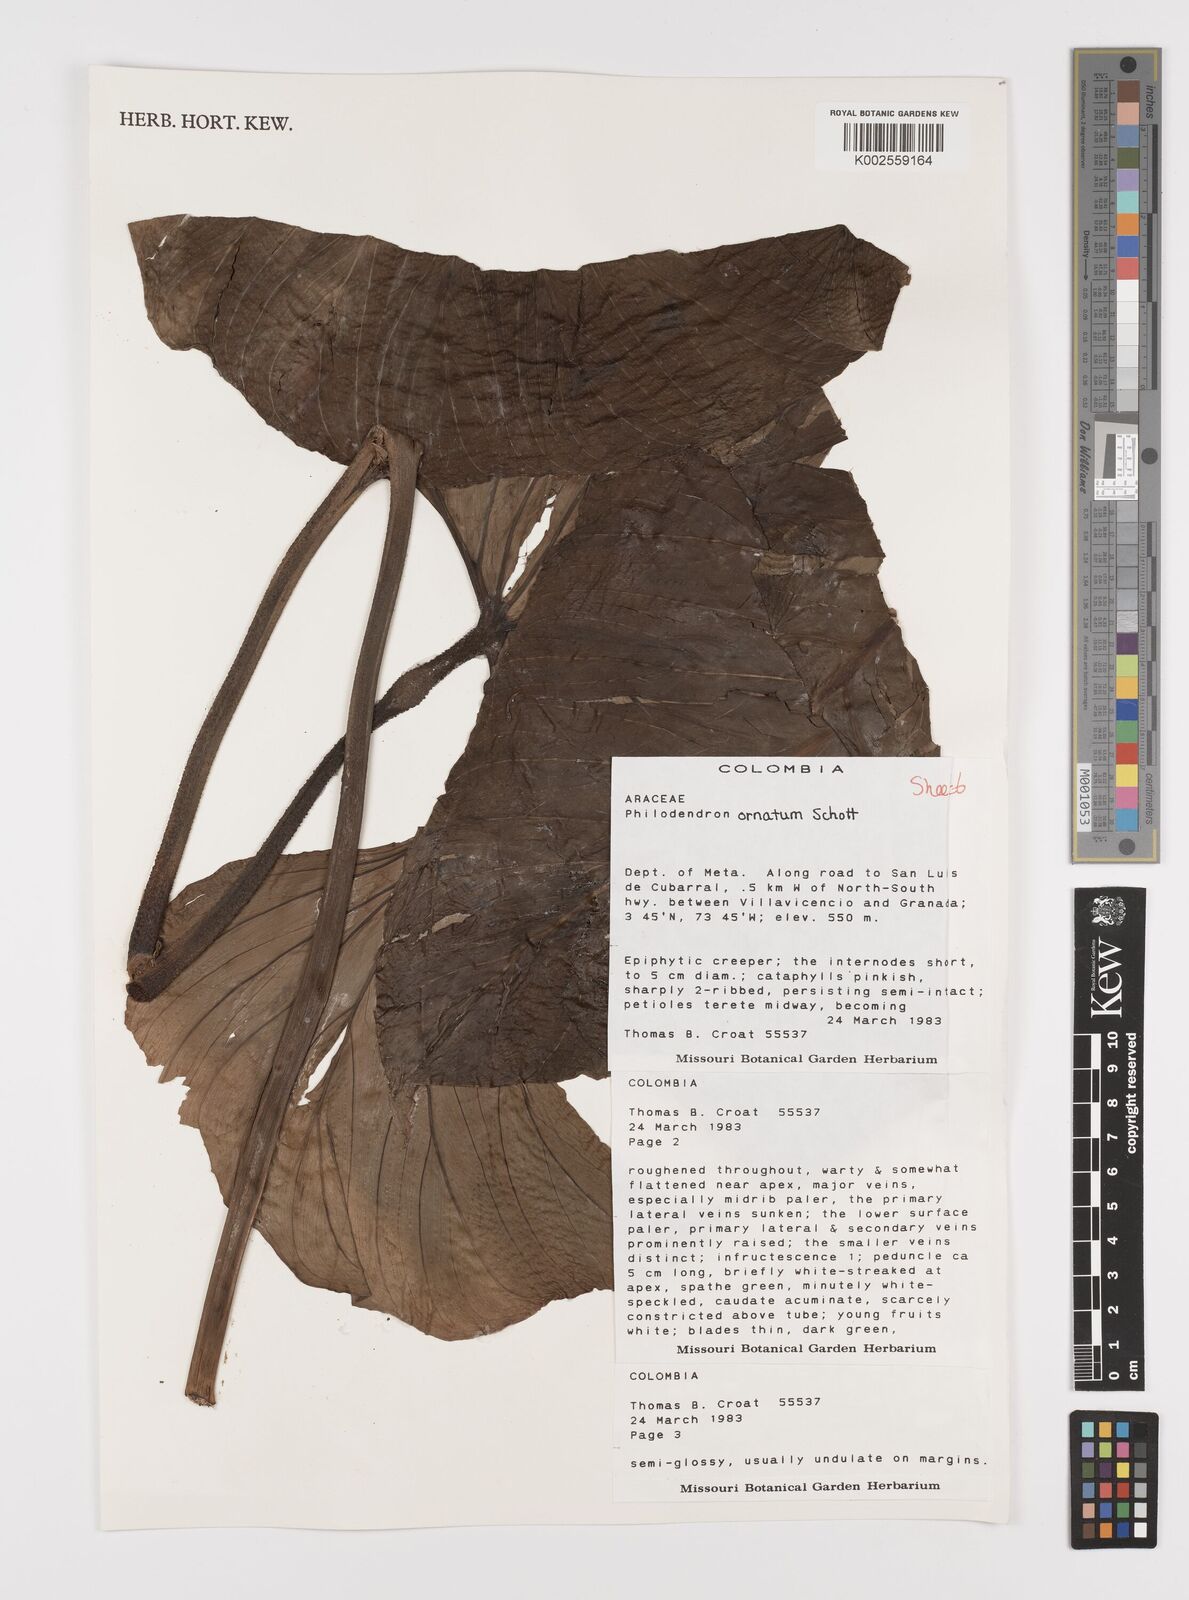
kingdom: Plantae
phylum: Tracheophyta
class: Liliopsida
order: Alismatales
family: Araceae
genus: Philodendron
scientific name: Philodendron ornatum
